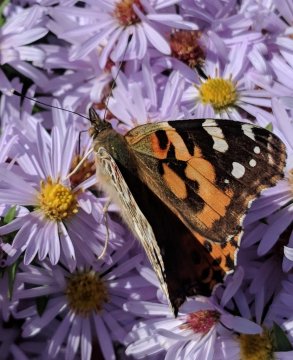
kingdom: Animalia
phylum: Arthropoda
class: Insecta
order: Lepidoptera
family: Nymphalidae
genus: Vanessa
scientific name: Vanessa cardui
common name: Painted Lady
